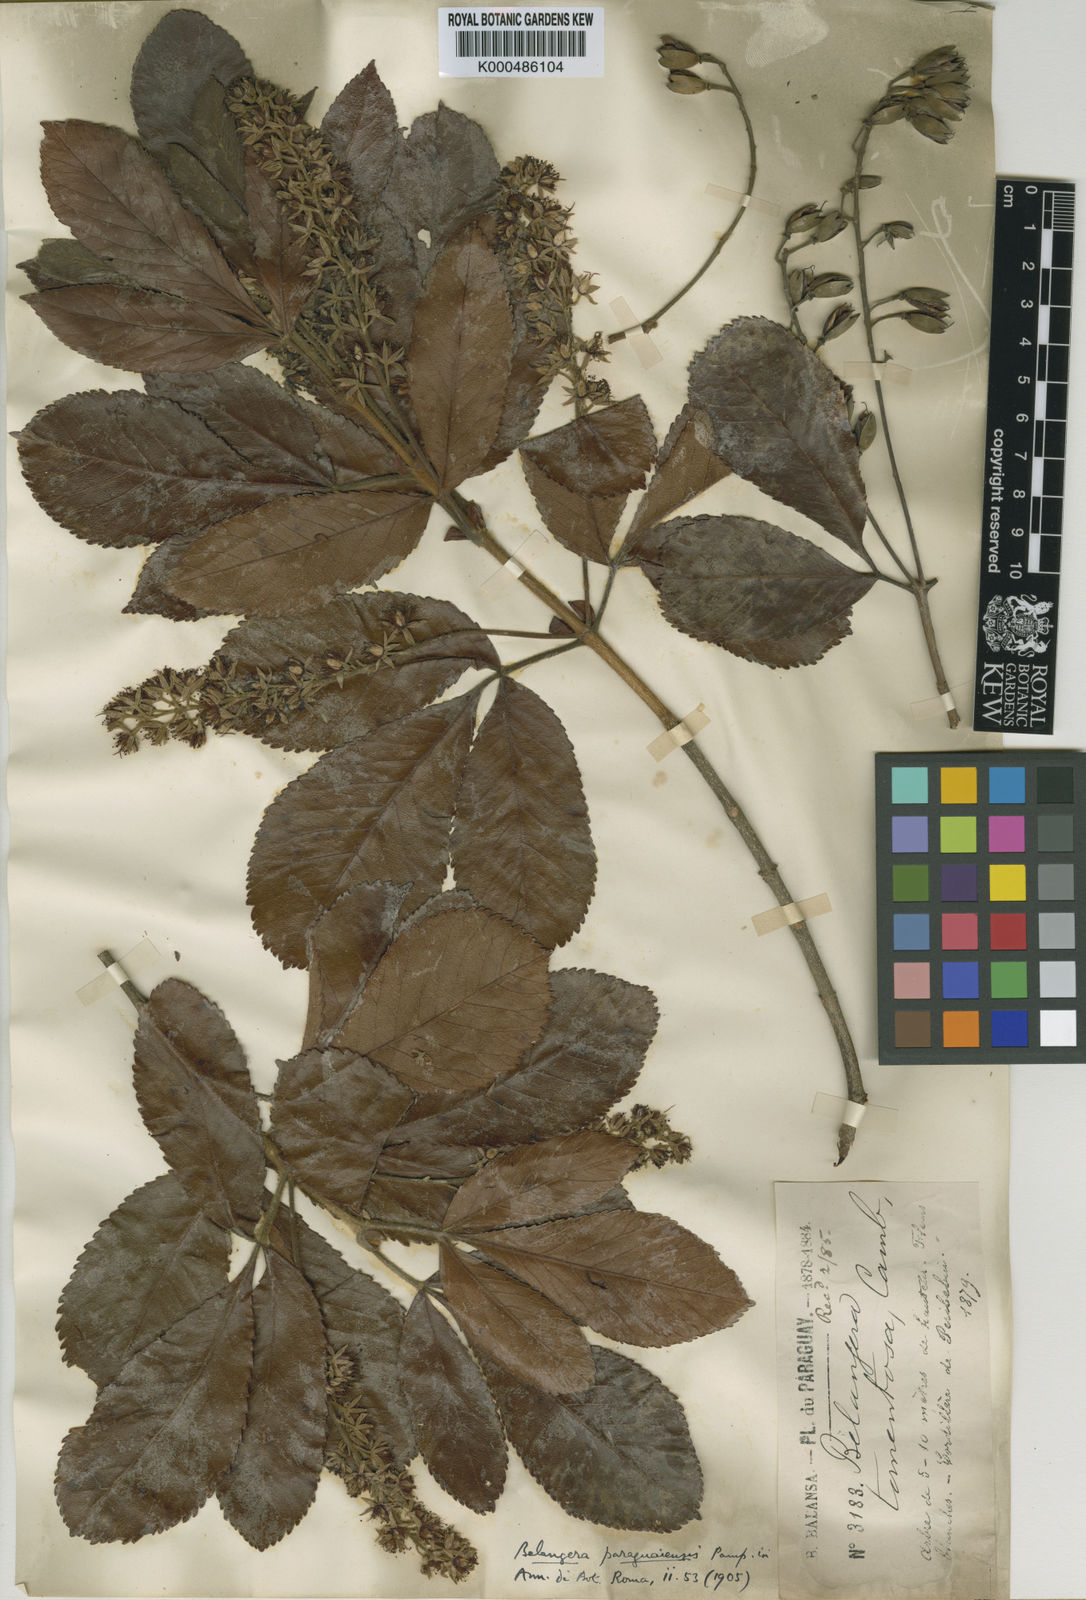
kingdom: Plantae
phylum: Tracheophyta
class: Magnoliopsida
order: Oxalidales
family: Cunoniaceae
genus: Lamanonia
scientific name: Lamanonia ternata
